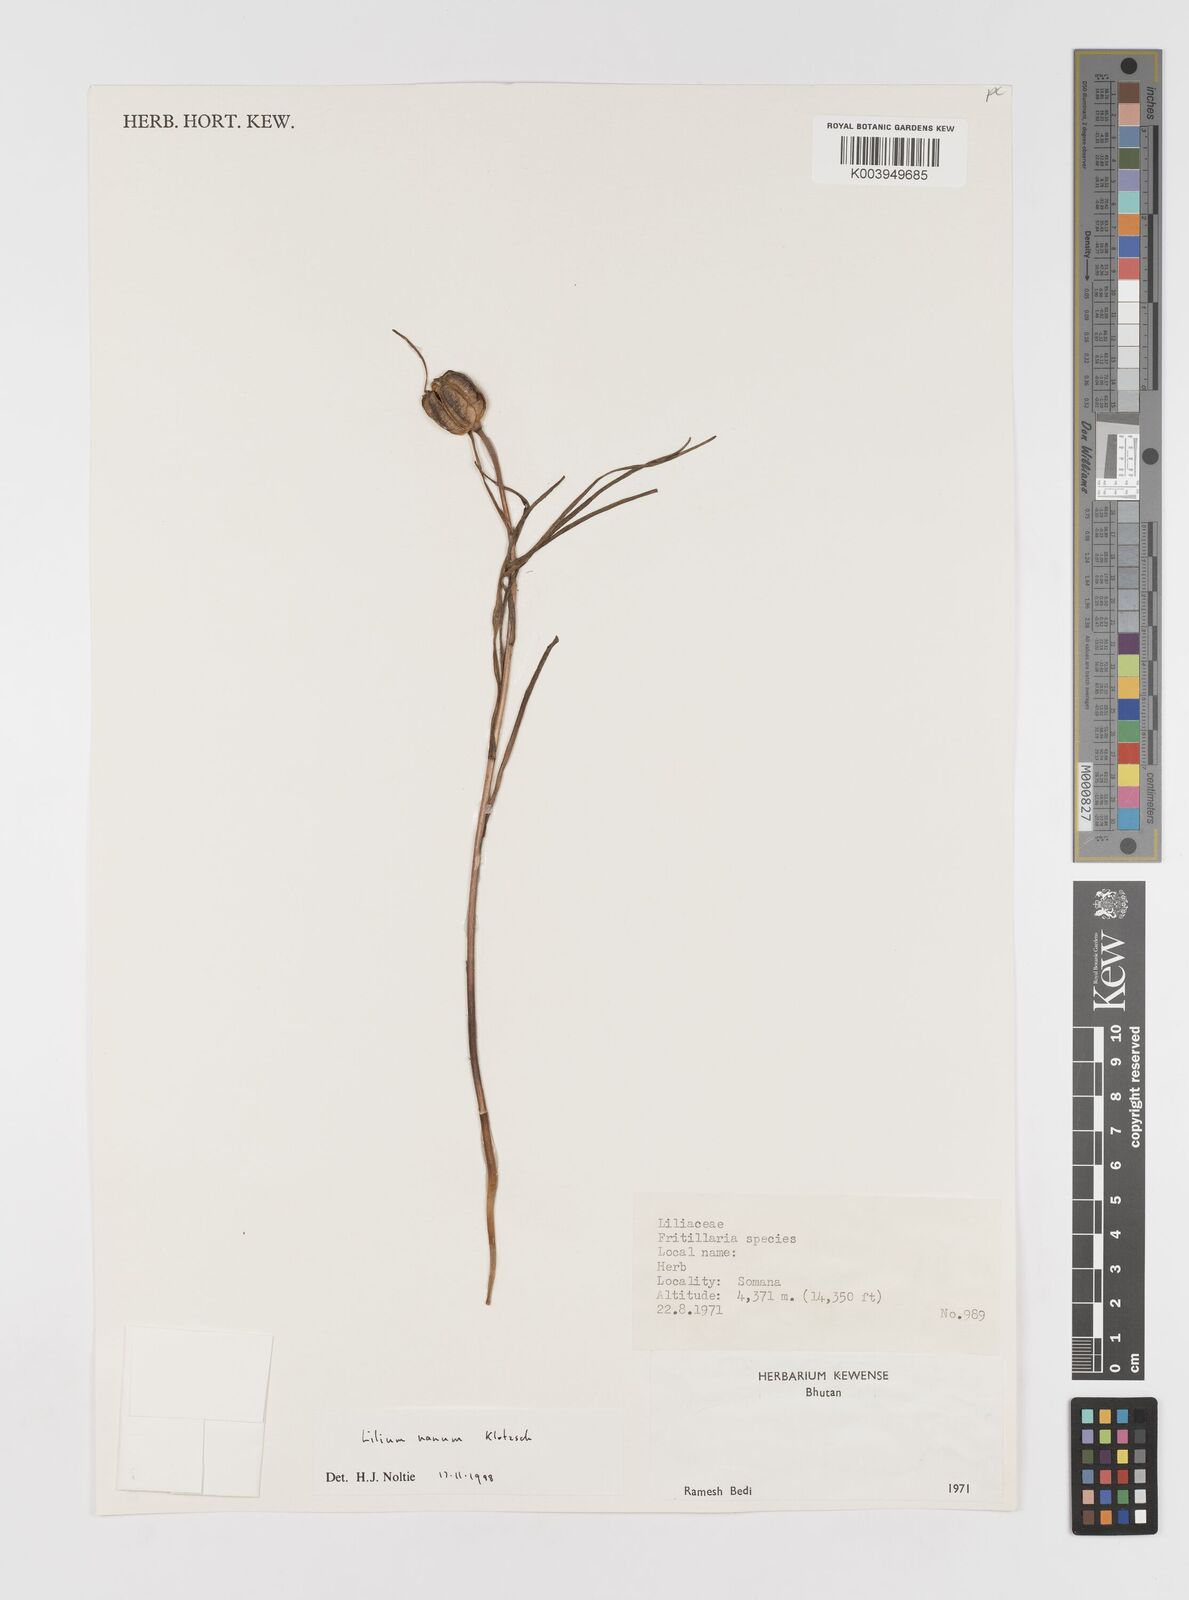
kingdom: Plantae
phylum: Tracheophyta
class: Liliopsida
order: Liliales
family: Liliaceae
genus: Lilium
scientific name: Lilium nanum
